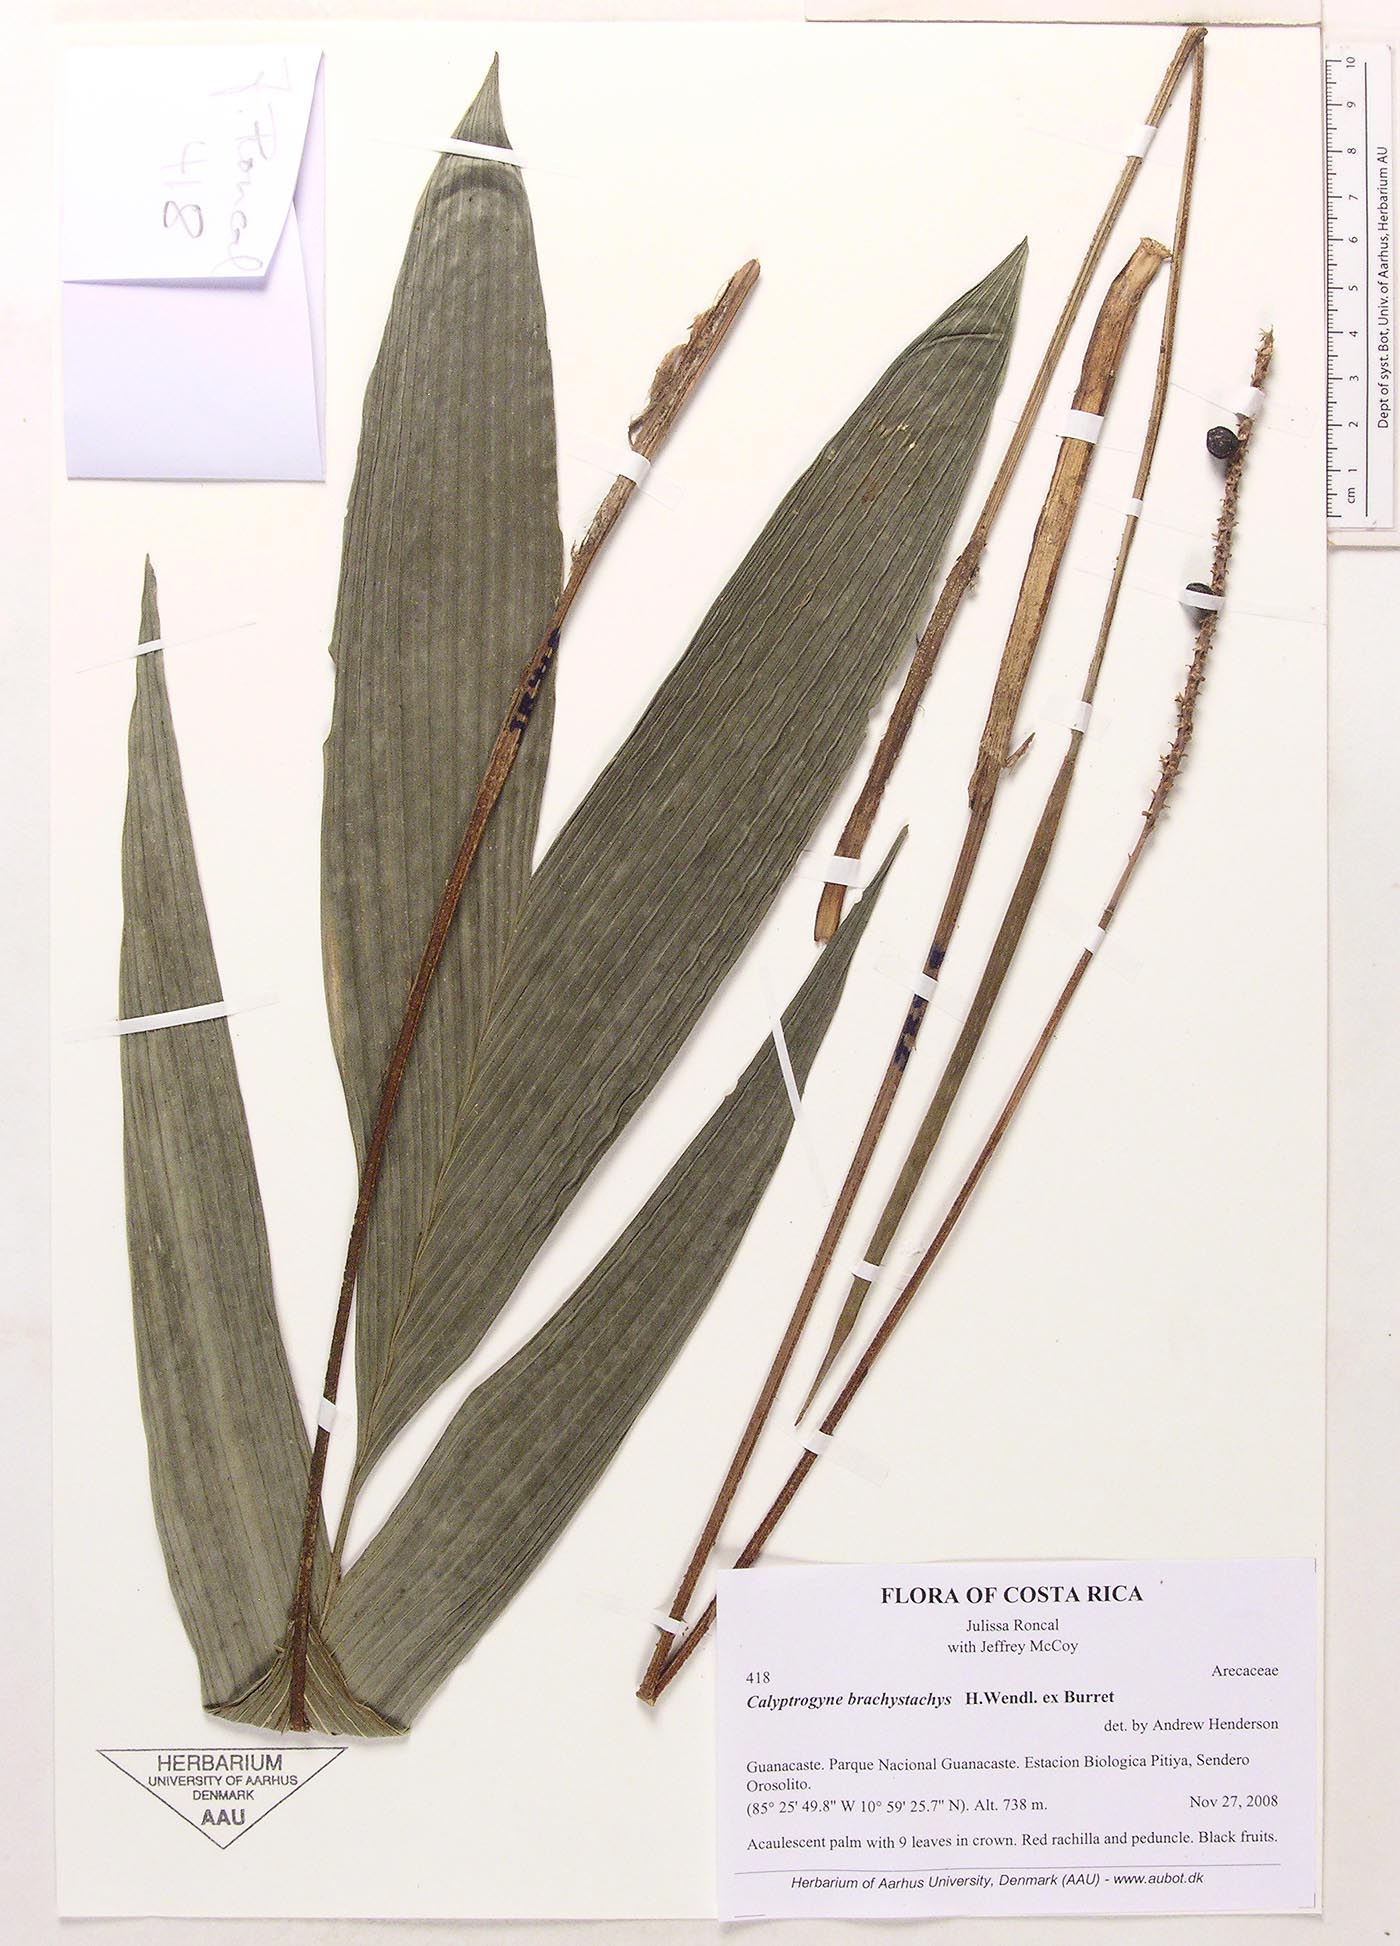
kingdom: Plantae
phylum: Tracheophyta
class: Liliopsida
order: Arecales
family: Arecaceae
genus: Calyptrogyne
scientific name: Calyptrogyne brachystachys
